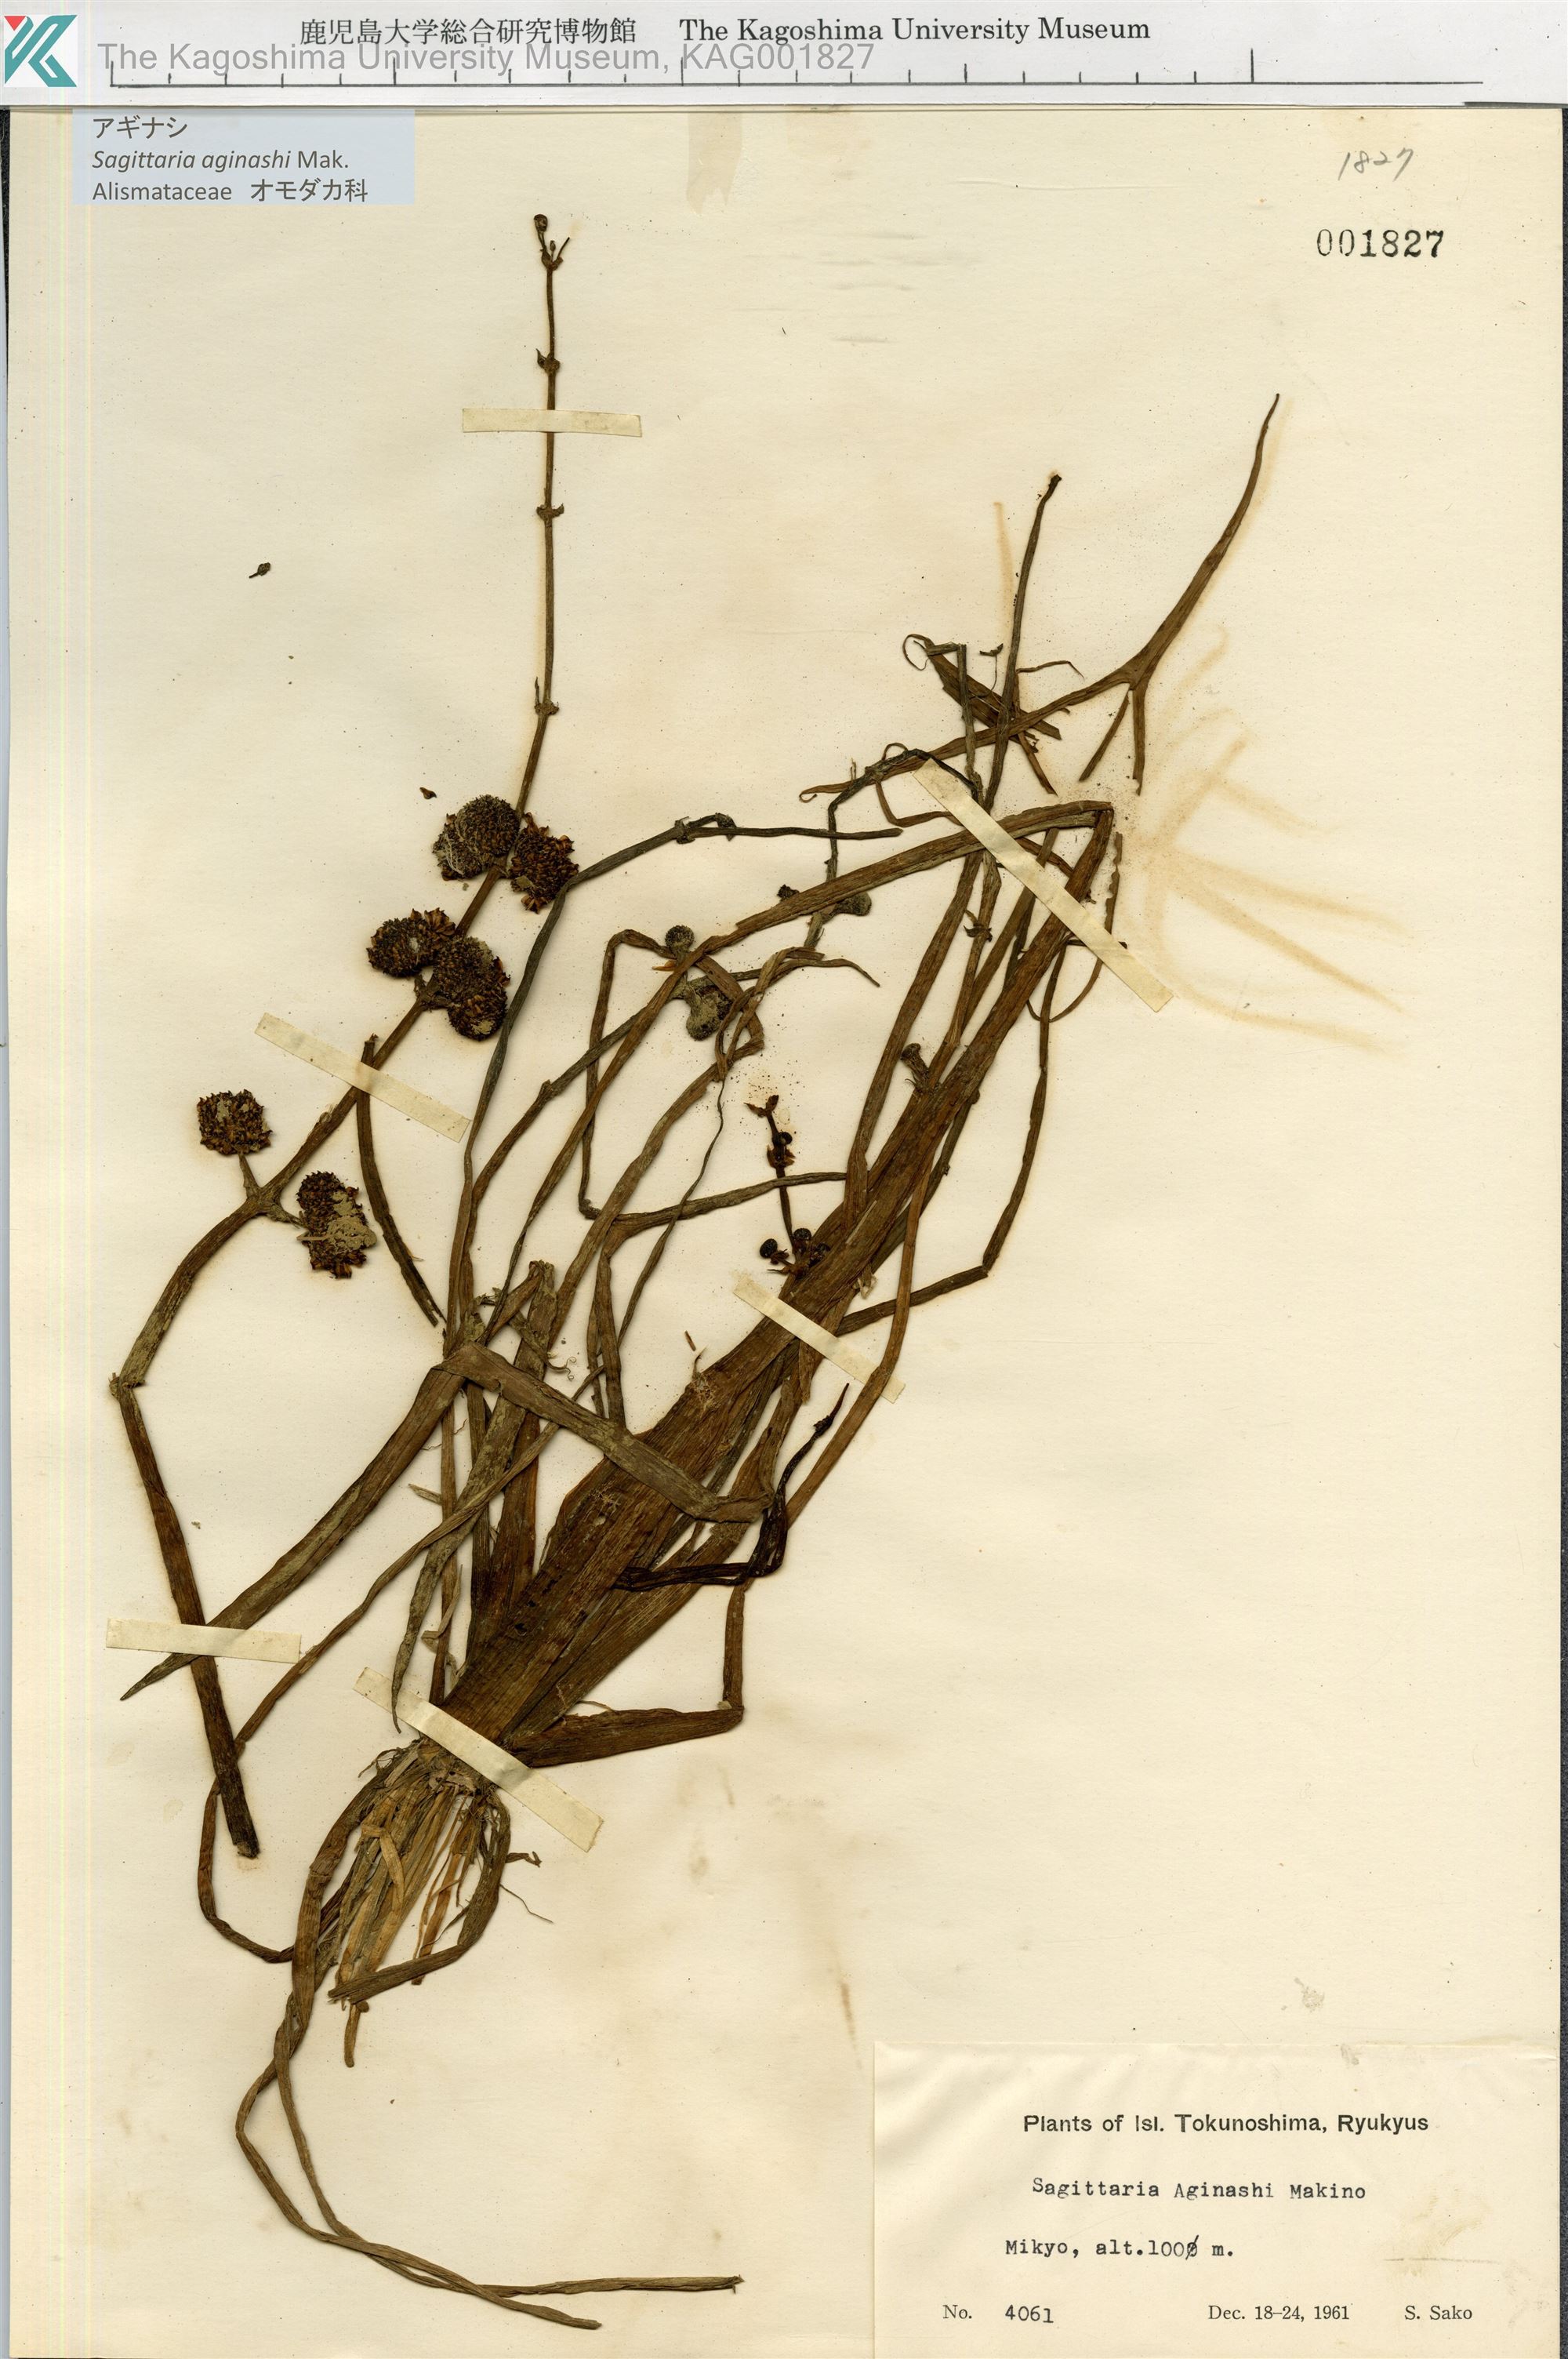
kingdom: Plantae
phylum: Tracheophyta
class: Liliopsida
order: Alismatales
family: Alismataceae
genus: Sagittaria
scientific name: Sagittaria aginashi
